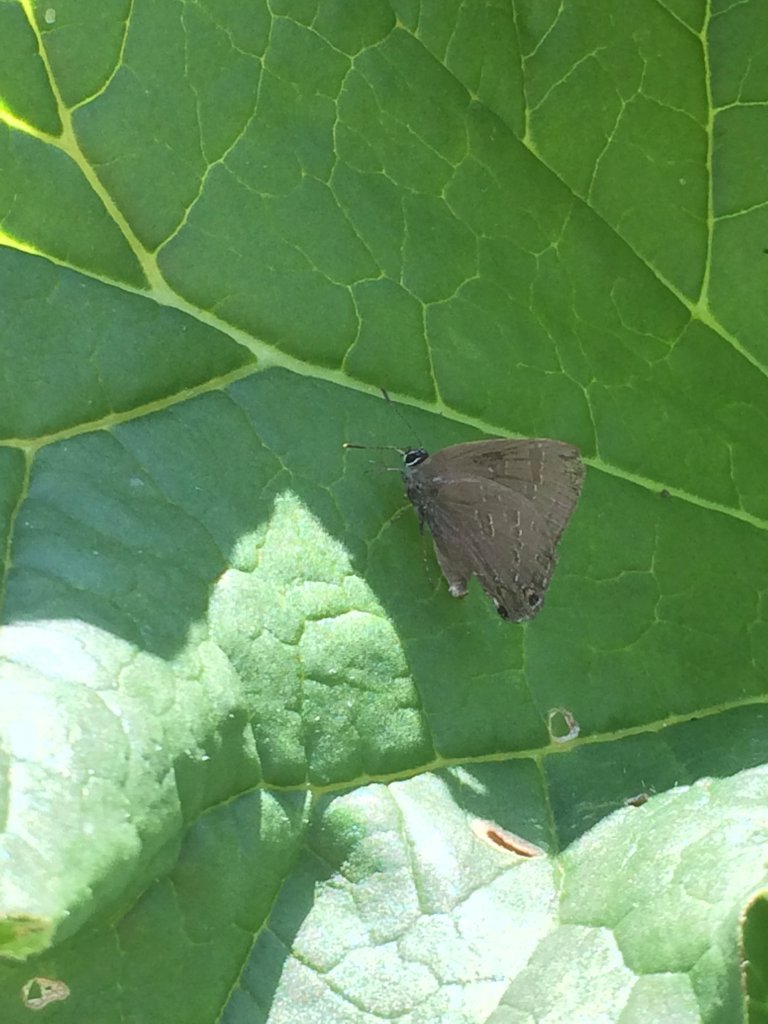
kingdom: Animalia
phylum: Arthropoda
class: Insecta
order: Lepidoptera
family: Lycaenidae
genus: Satyrium
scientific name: Satyrium calanus
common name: Banded Hairstreak
